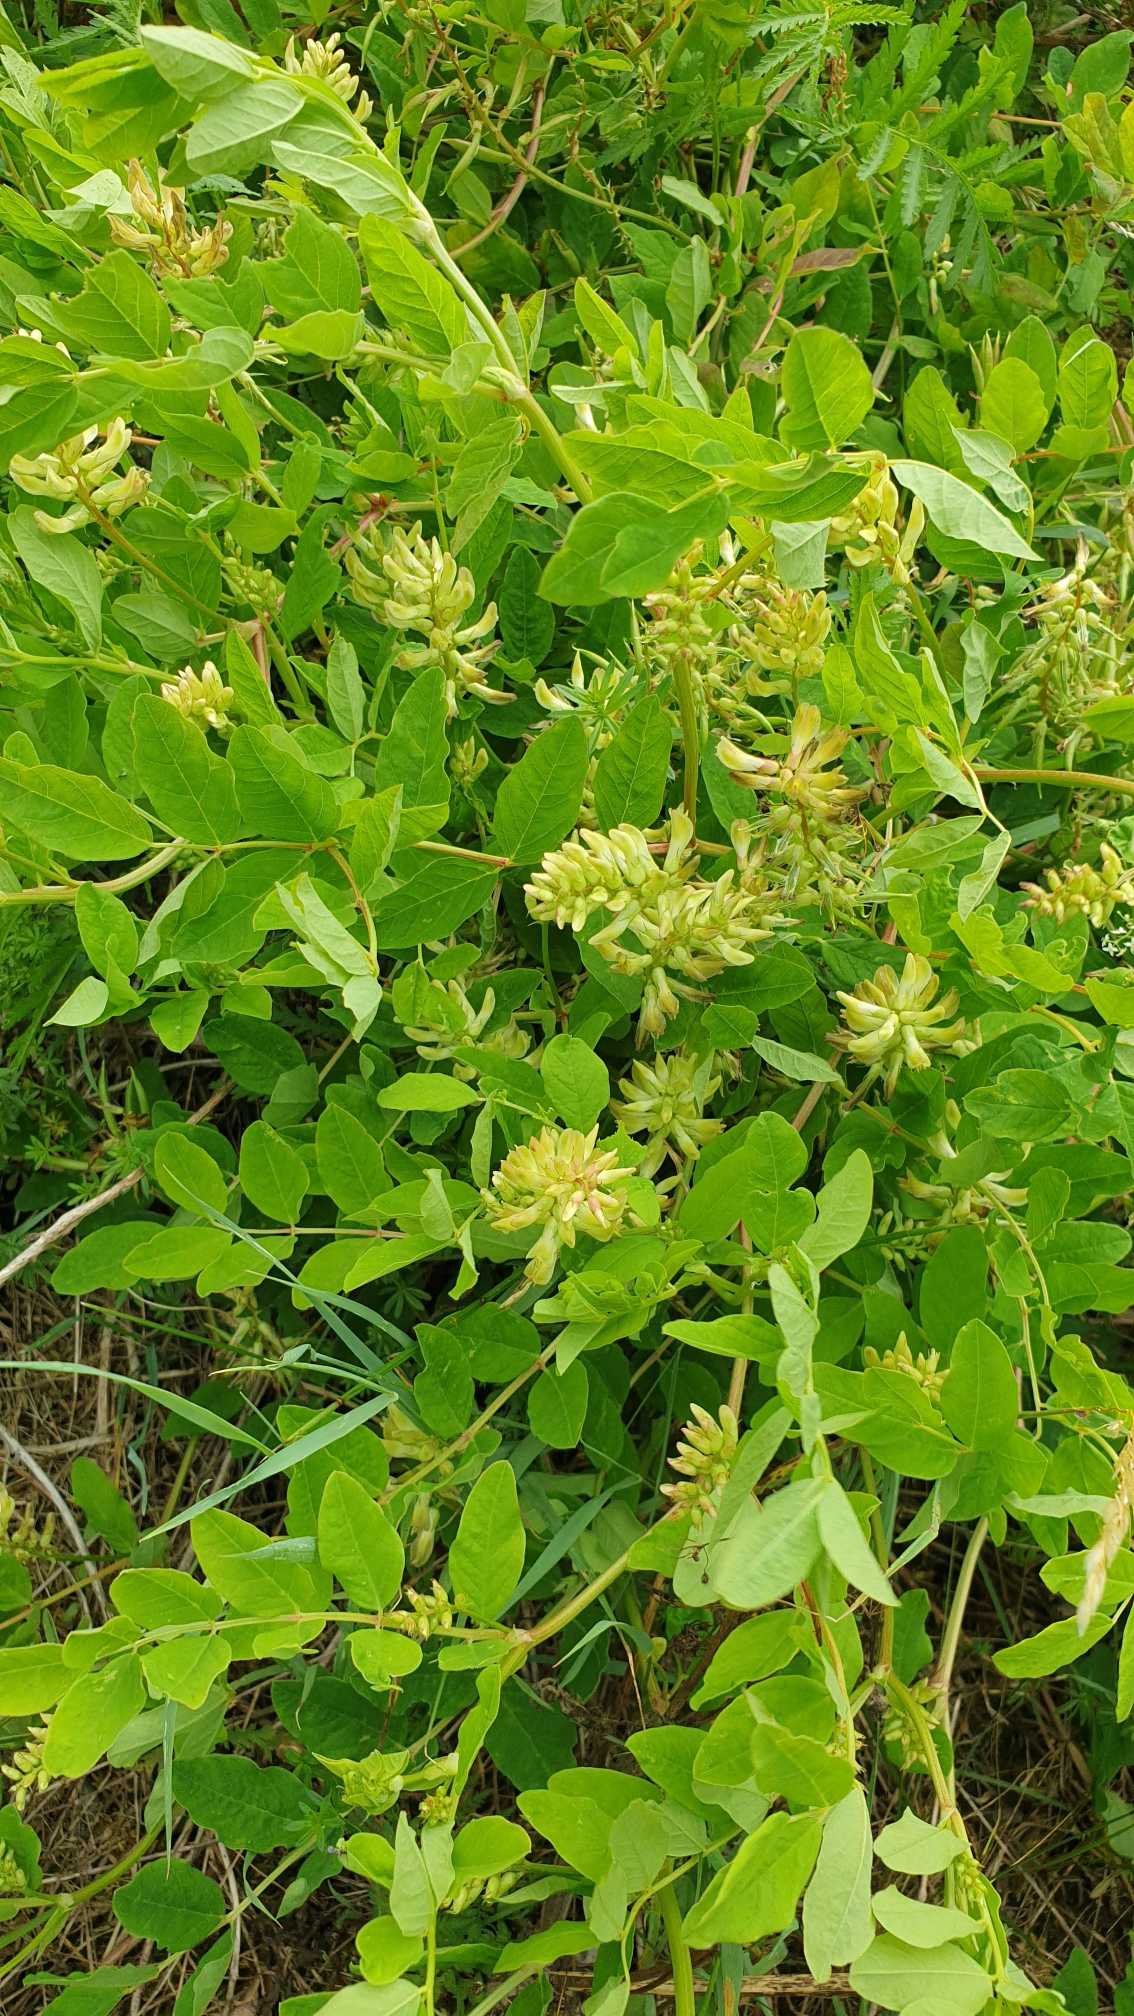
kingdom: Plantae
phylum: Tracheophyta
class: Magnoliopsida
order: Fabales
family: Fabaceae
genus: Astragalus
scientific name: Astragalus glycyphyllos
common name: Sød astragel
